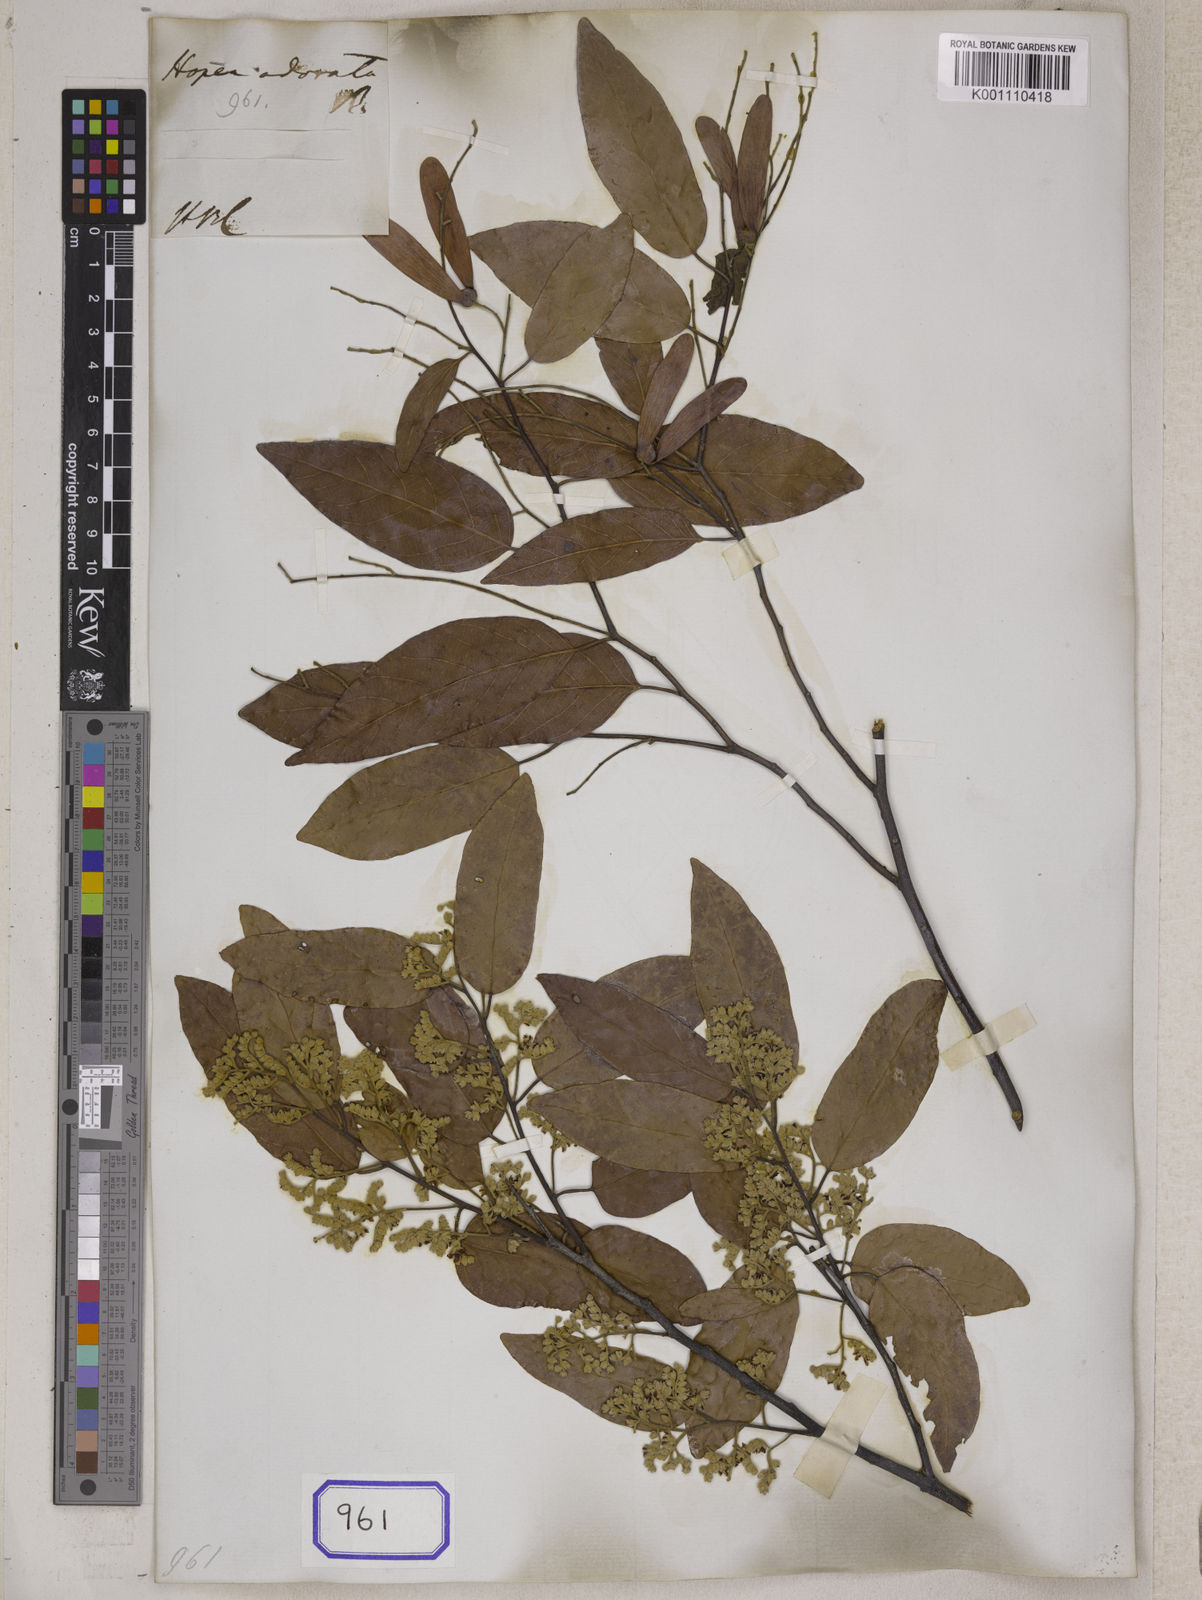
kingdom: Plantae
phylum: Tracheophyta
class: Magnoliopsida
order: Malvales
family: Dipterocarpaceae
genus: Hopea
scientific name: Hopea odorata
